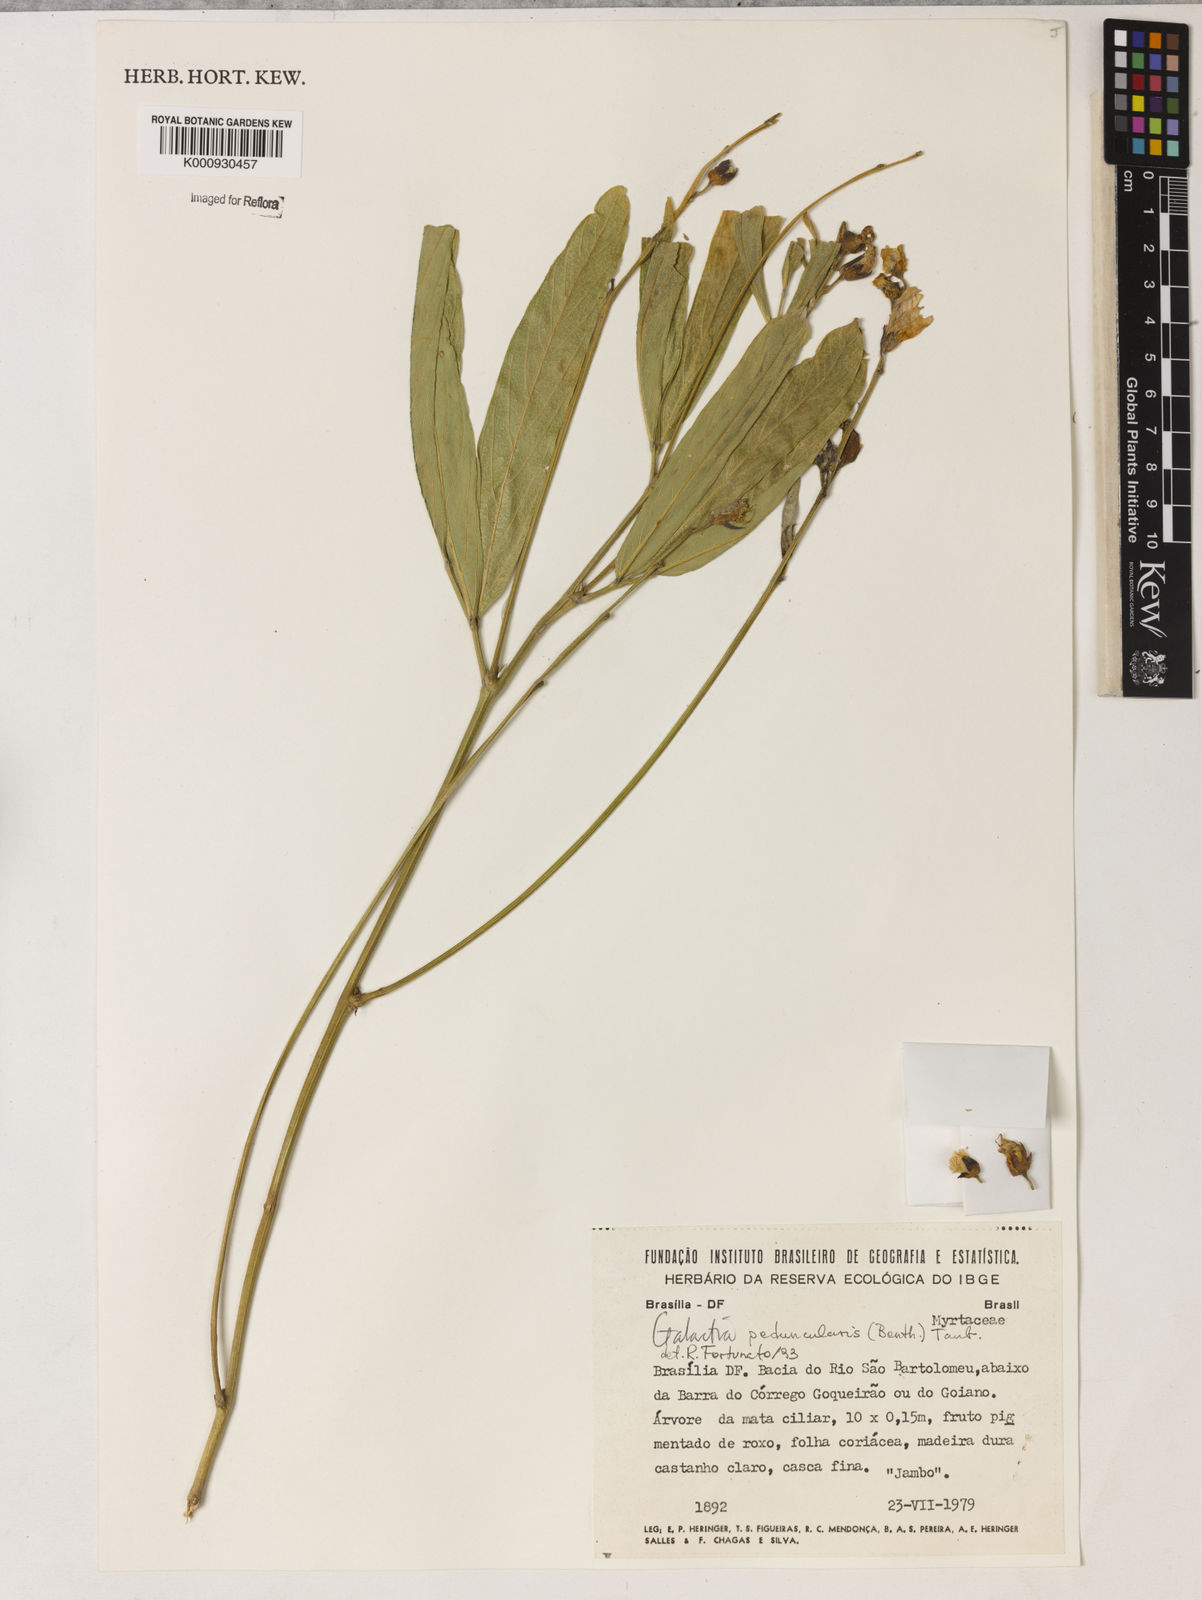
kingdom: Plantae
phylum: Tracheophyta
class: Magnoliopsida
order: Fabales
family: Fabaceae
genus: Galactia
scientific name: Galactia
